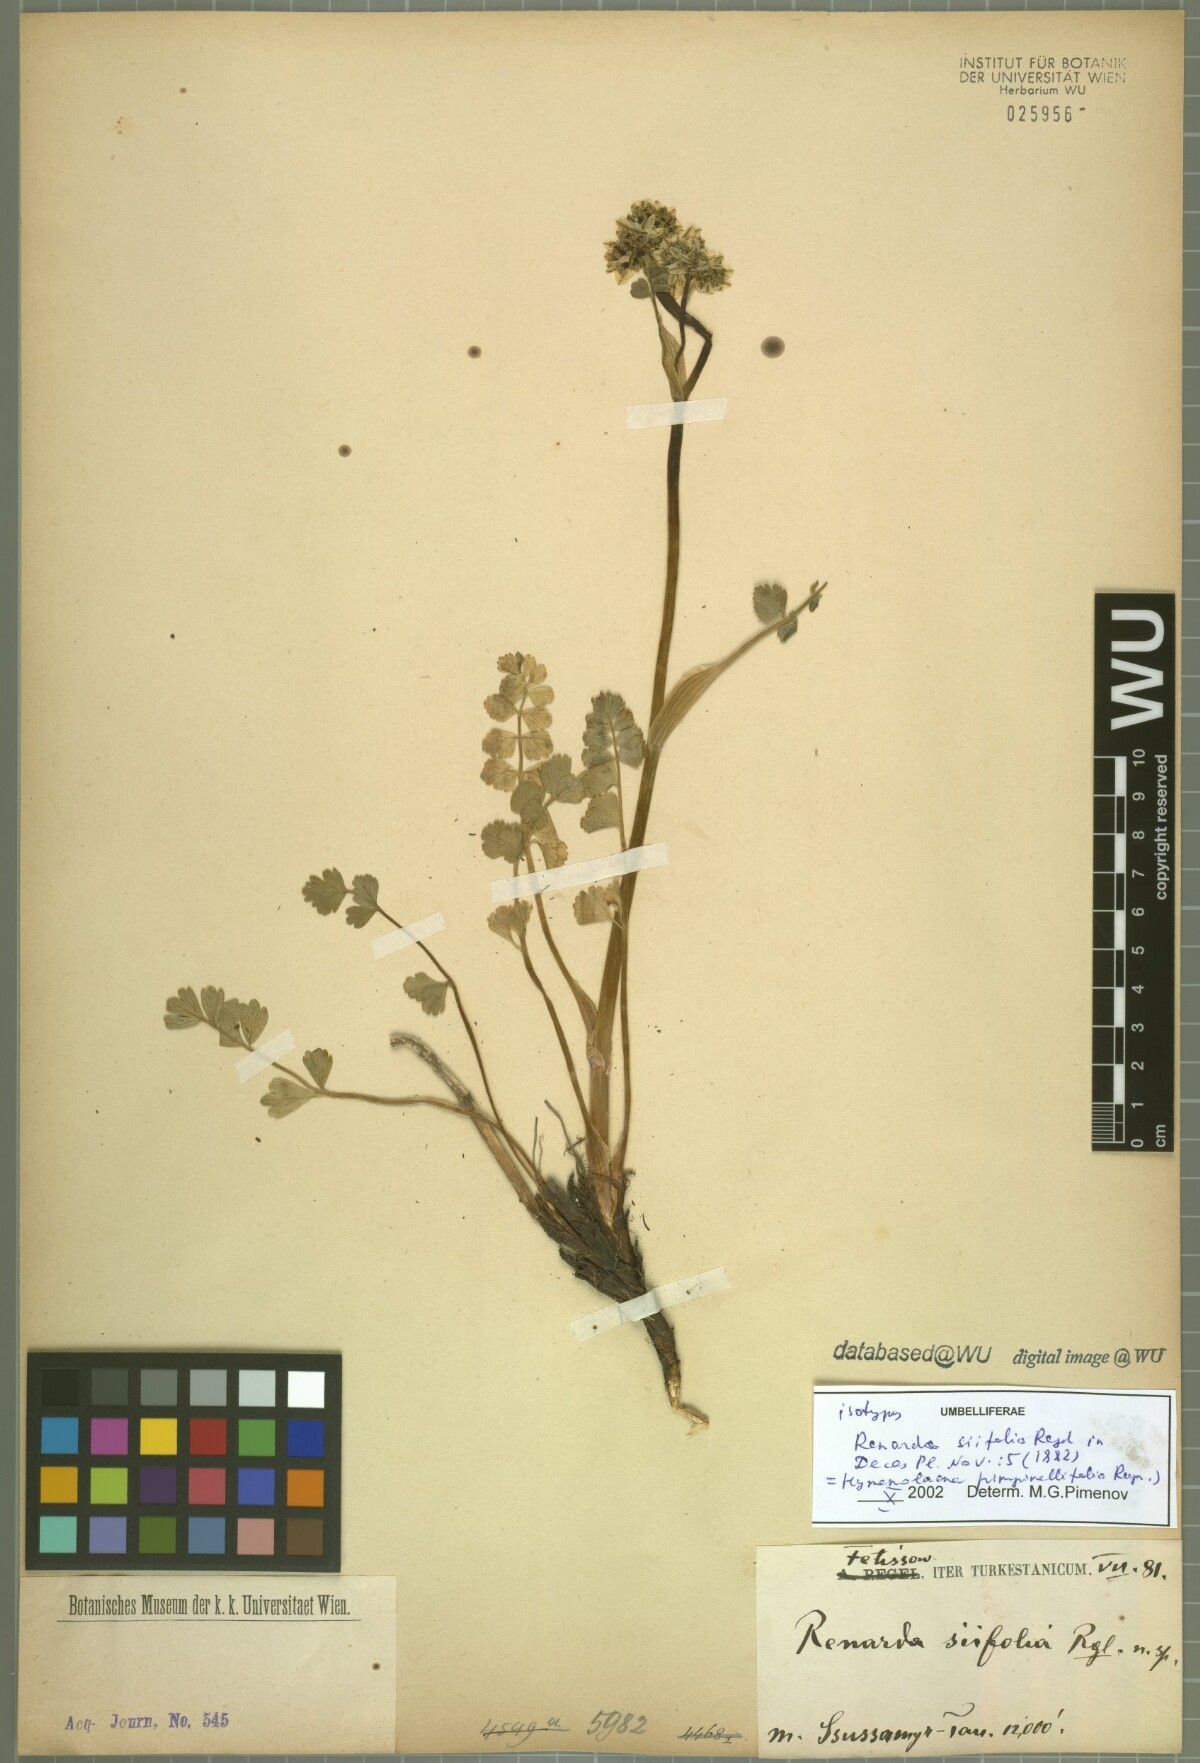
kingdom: Plantae
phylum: Tracheophyta
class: Magnoliopsida
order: Apiales
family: Apiaceae
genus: Hymenidium
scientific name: Hymenidium lindleyanum
